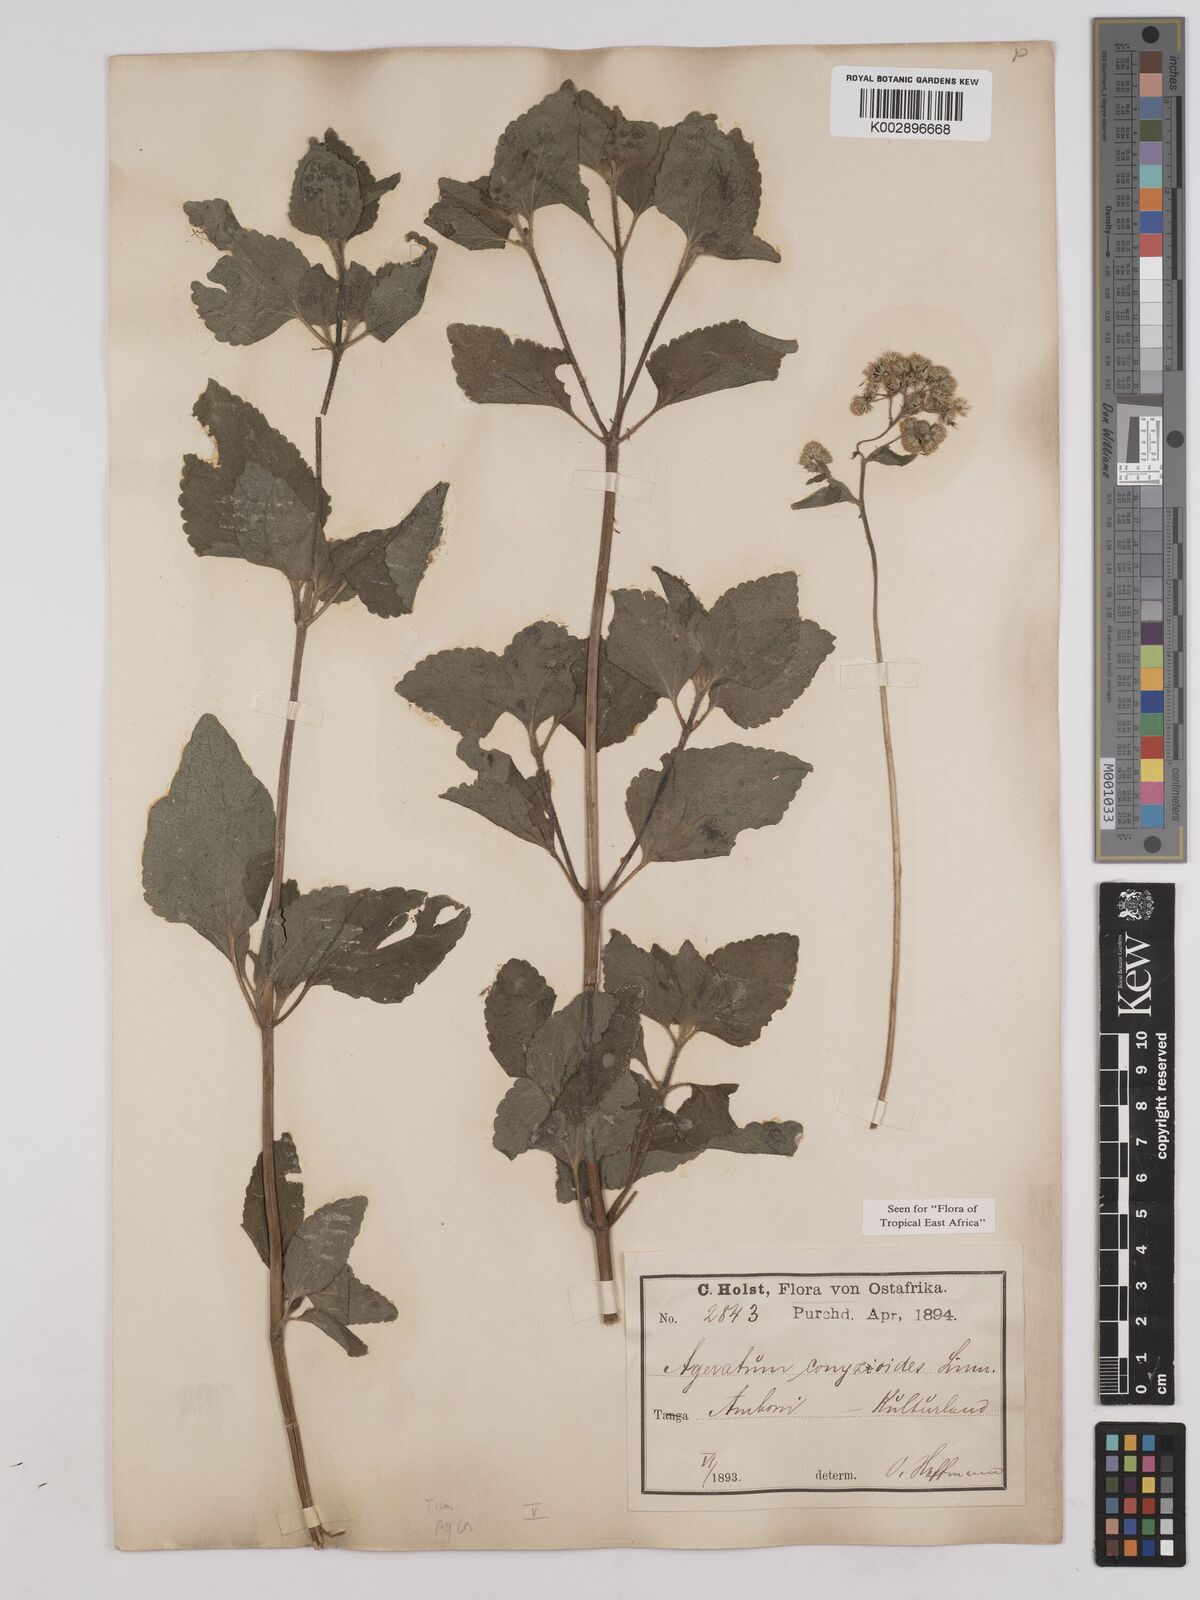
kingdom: Plantae
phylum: Tracheophyta
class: Magnoliopsida
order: Asterales
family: Asteraceae
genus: Ageratum
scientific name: Ageratum conyzoides
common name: Tropical whiteweed
